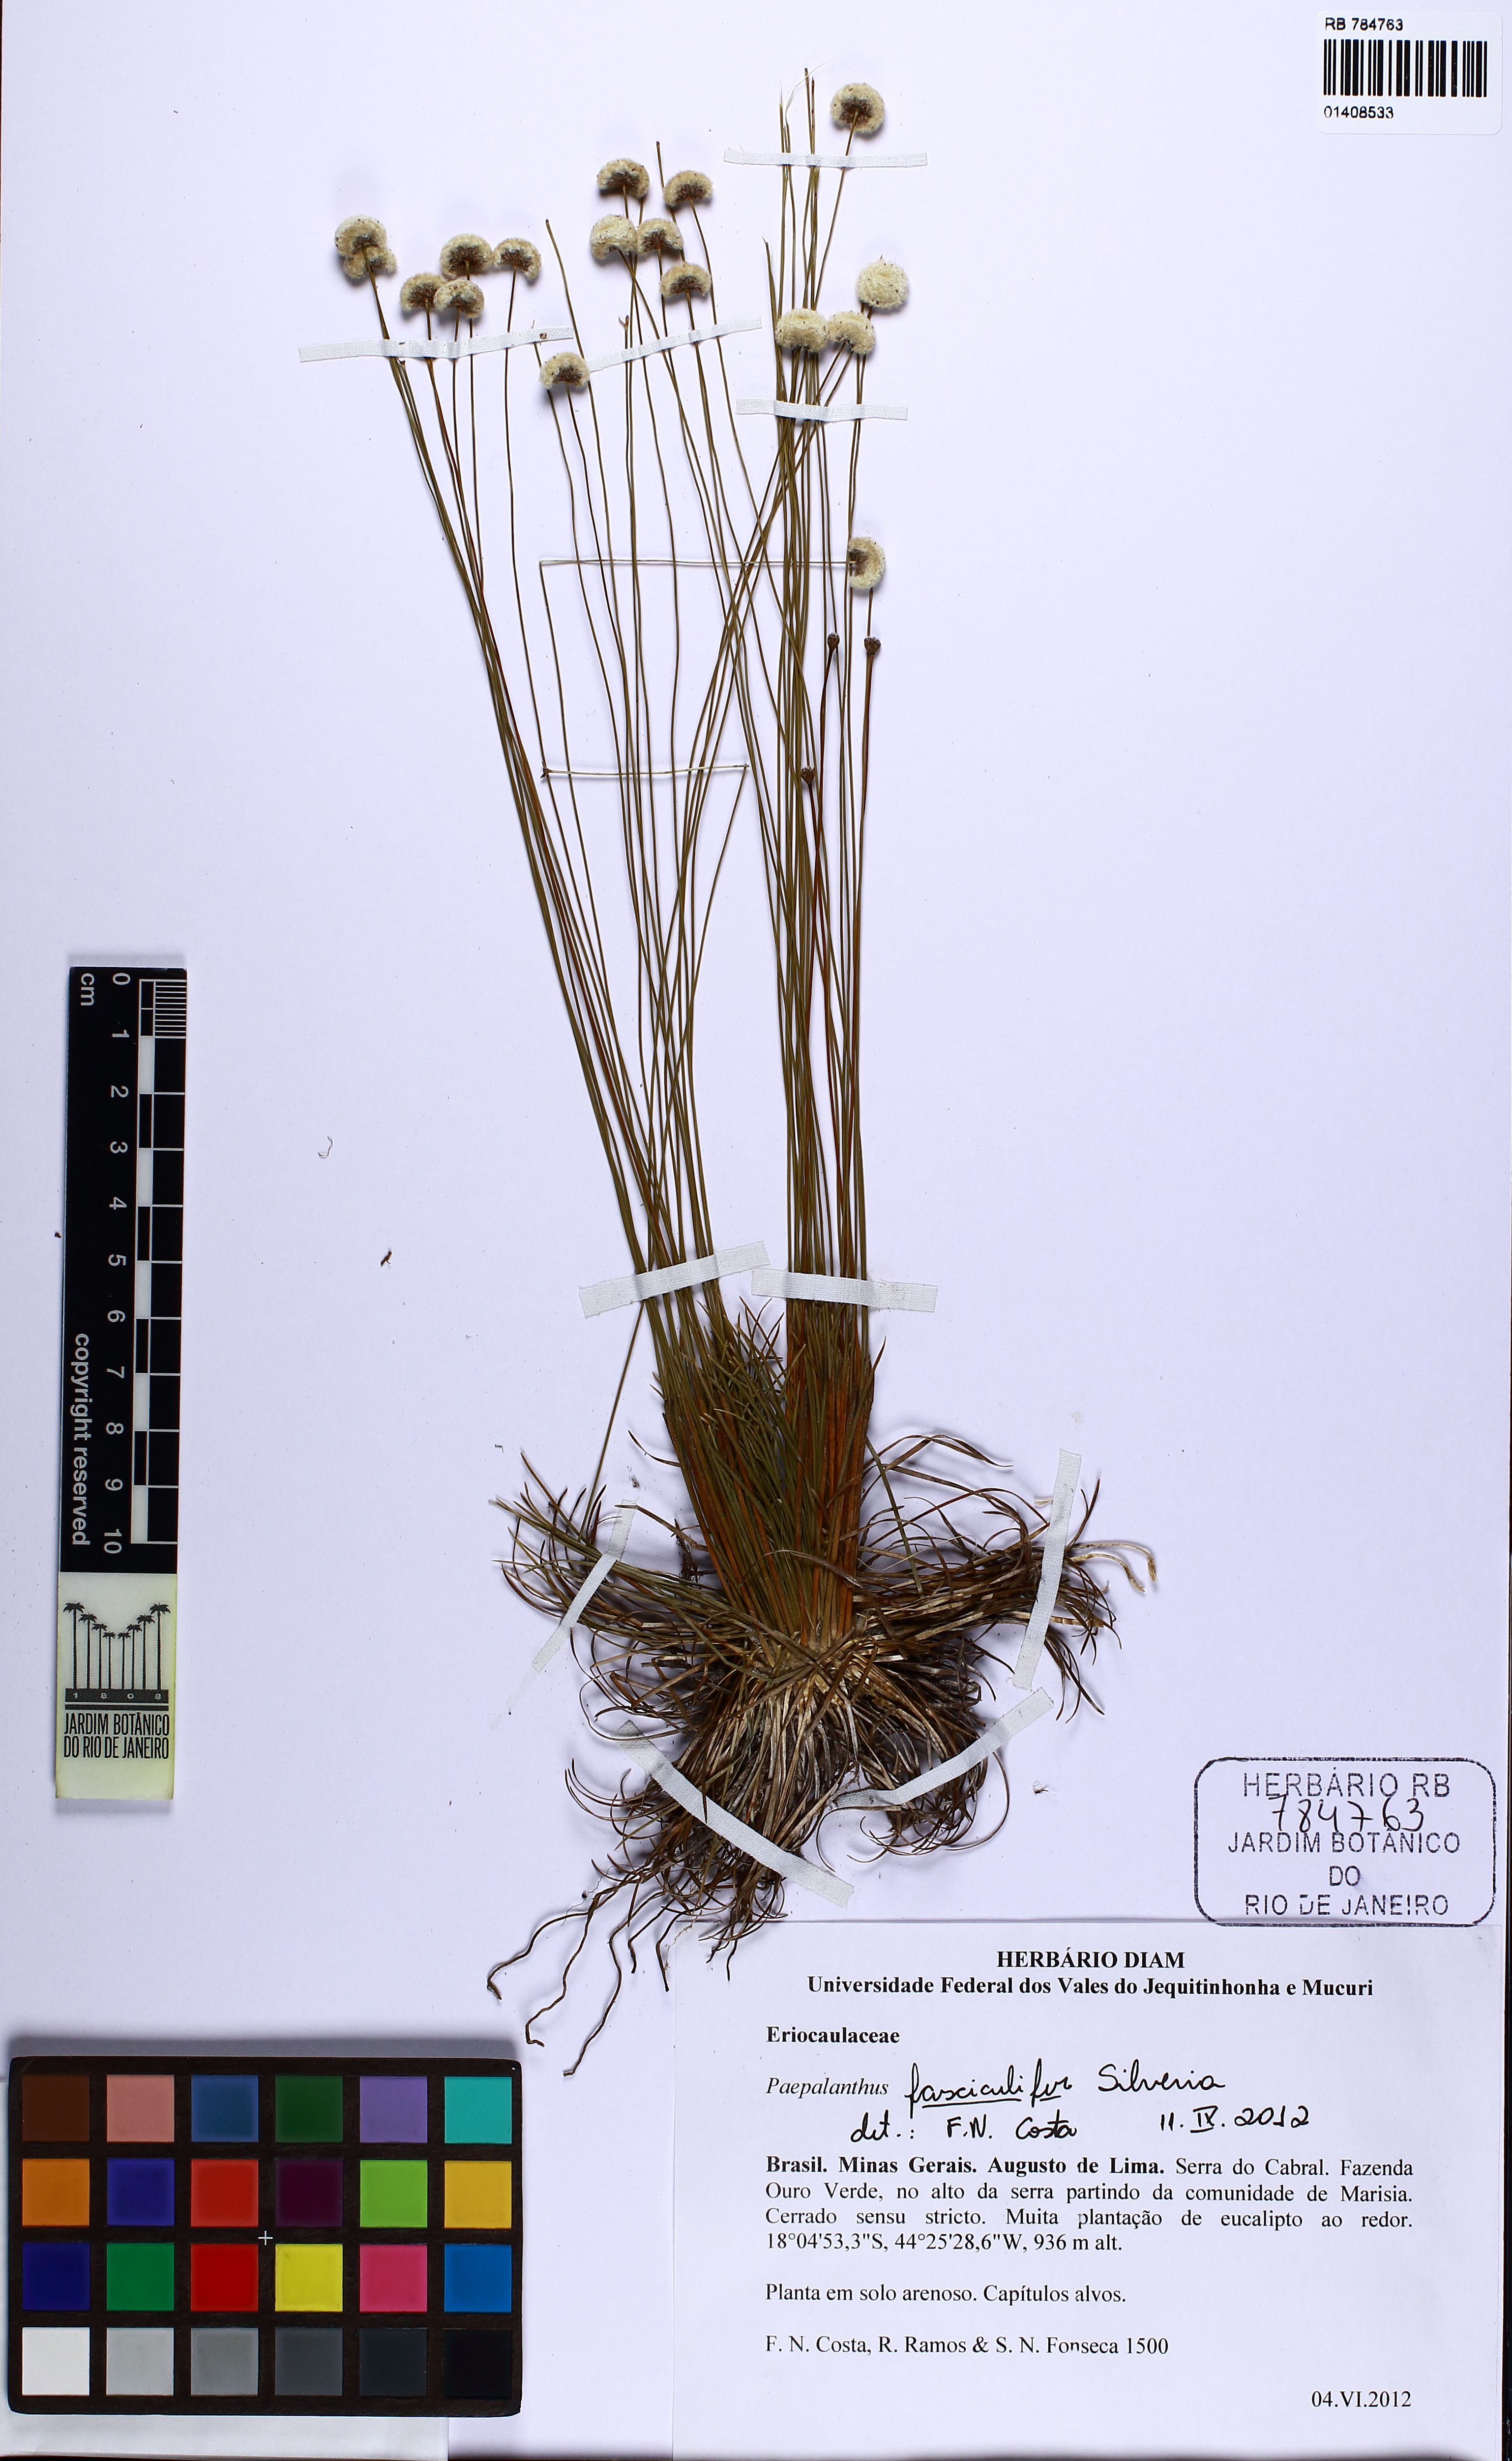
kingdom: Plantae
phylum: Tracheophyta
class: Liliopsida
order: Poales
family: Eriocaulaceae
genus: Paepalanthus
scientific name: Paepalanthus fasciculifer
